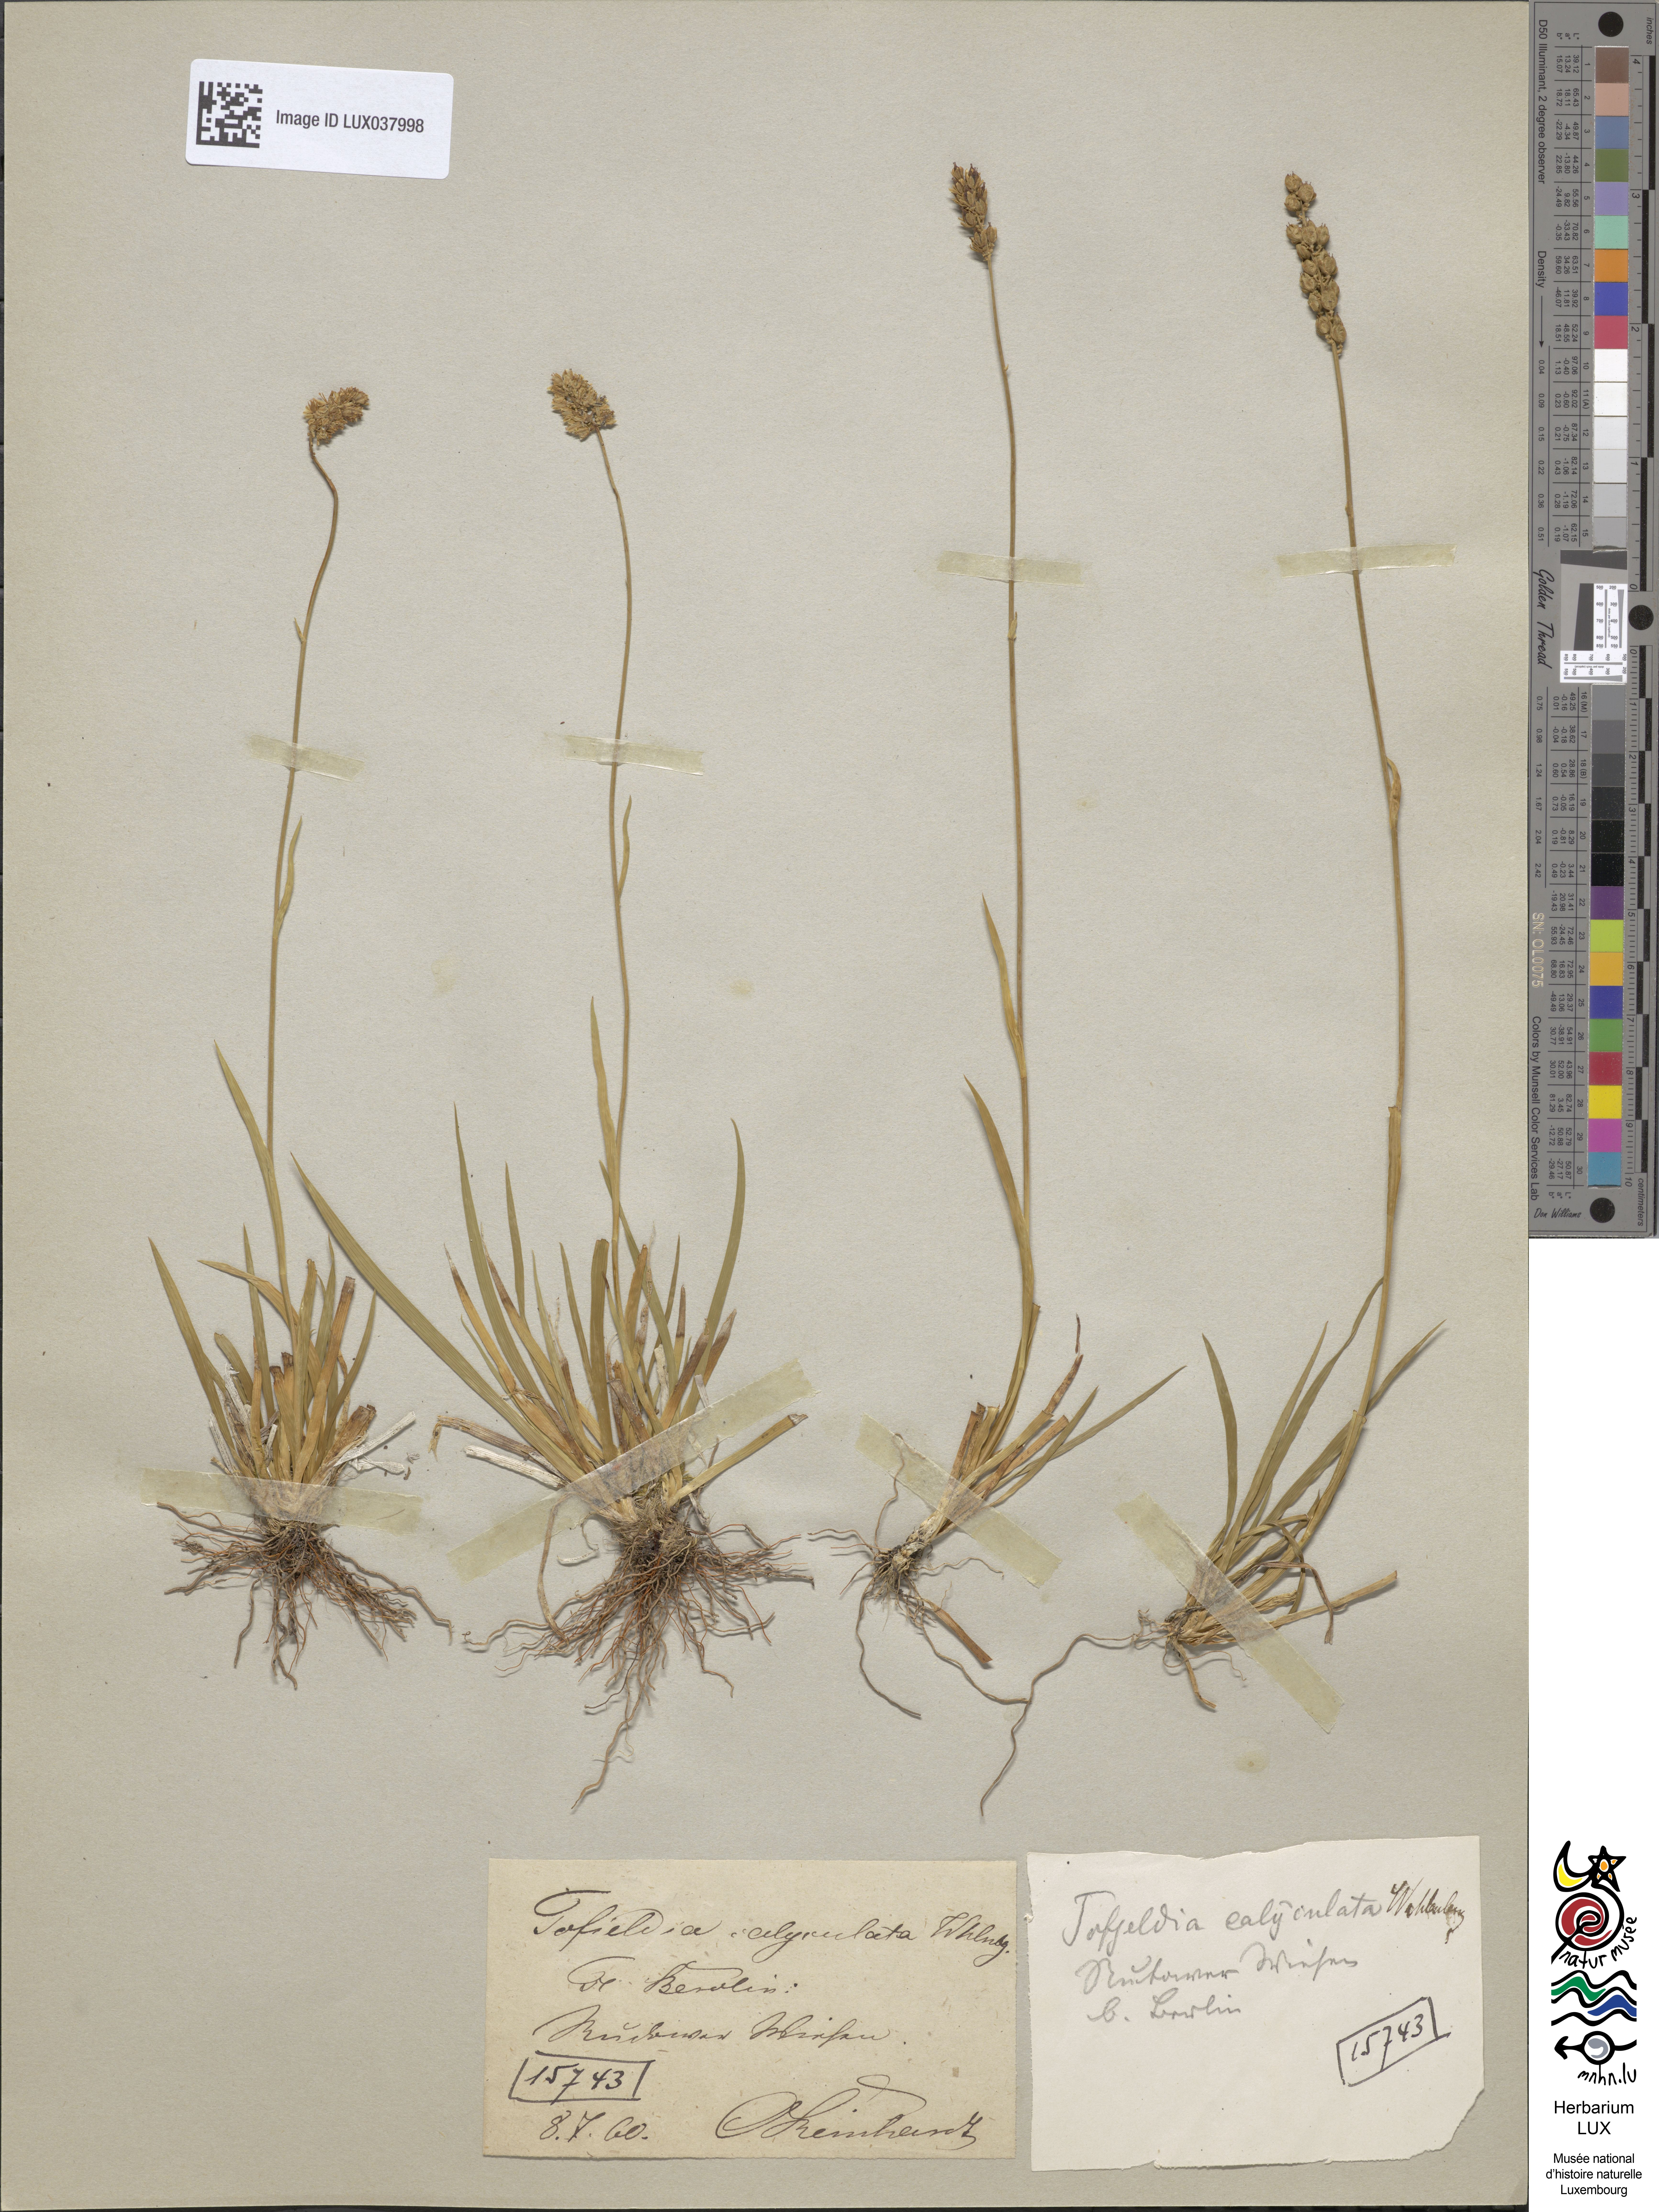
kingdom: Plantae
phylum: Tracheophyta
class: Liliopsida
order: Alismatales
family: Tofieldiaceae
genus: Tofieldia
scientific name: Tofieldia calyculata
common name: German-asphodel
